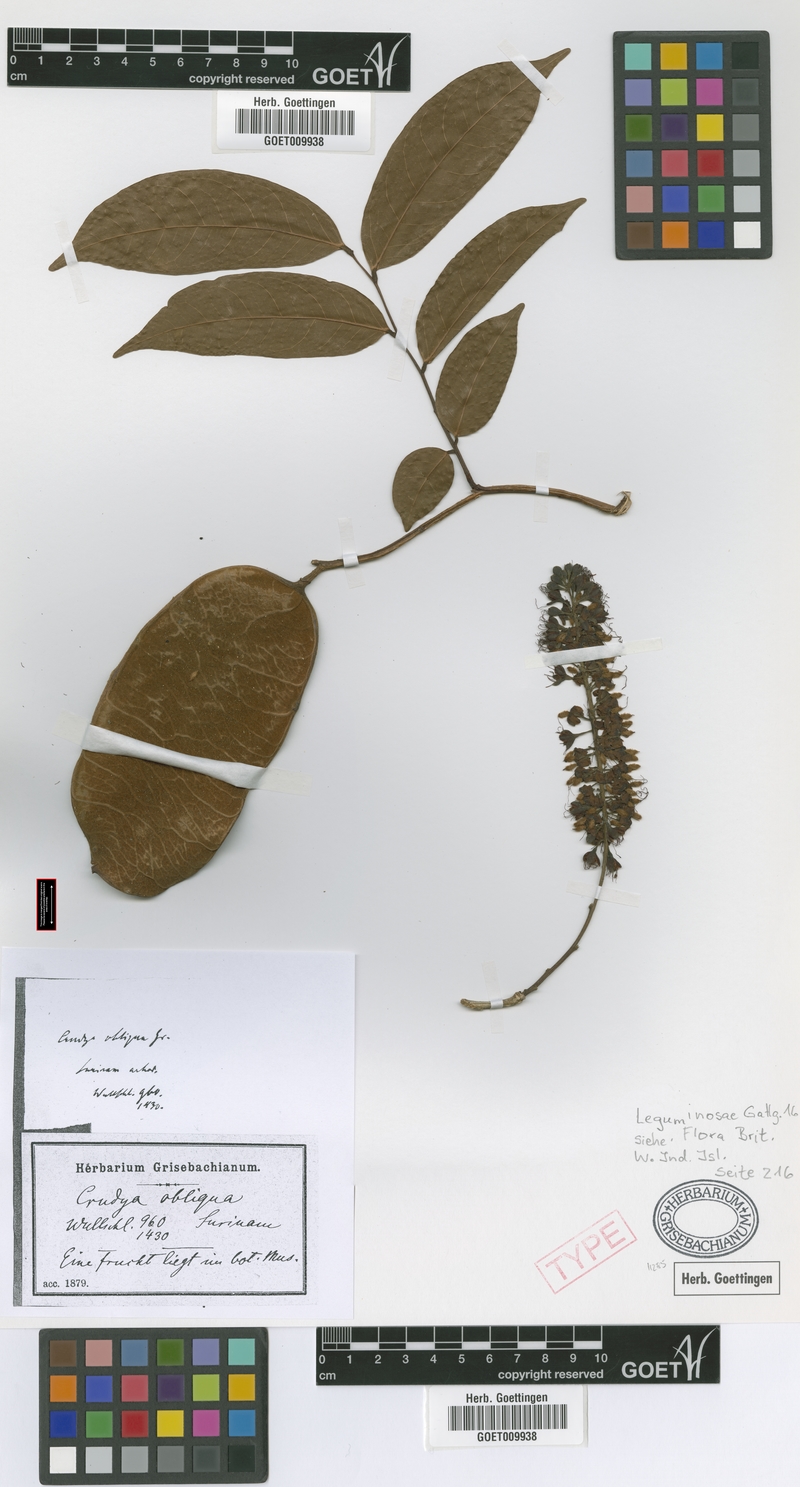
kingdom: Plantae
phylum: Tracheophyta
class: Magnoliopsida
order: Fabales
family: Fabaceae
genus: Crudia
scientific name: Crudia glaberrima
